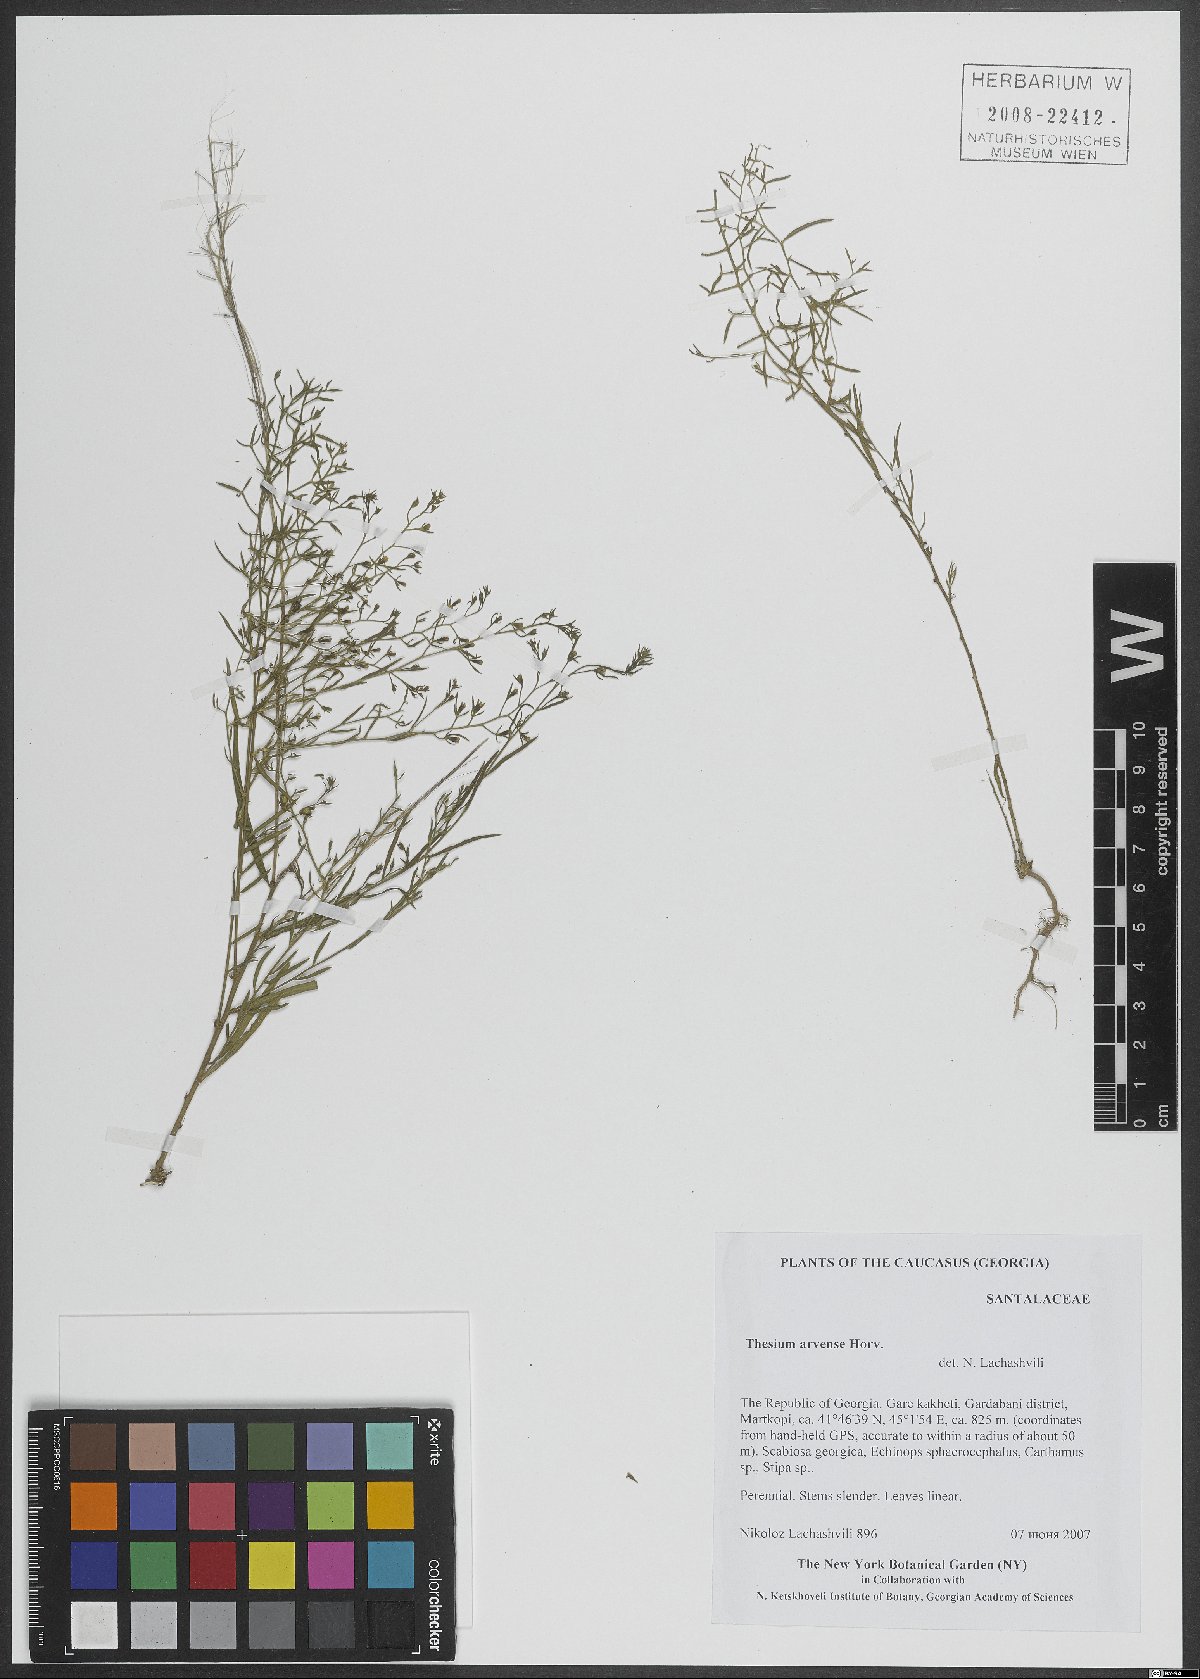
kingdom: Plantae
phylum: Tracheophyta
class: Magnoliopsida
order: Santalales
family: Thesiaceae
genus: Thesium
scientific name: Thesium
